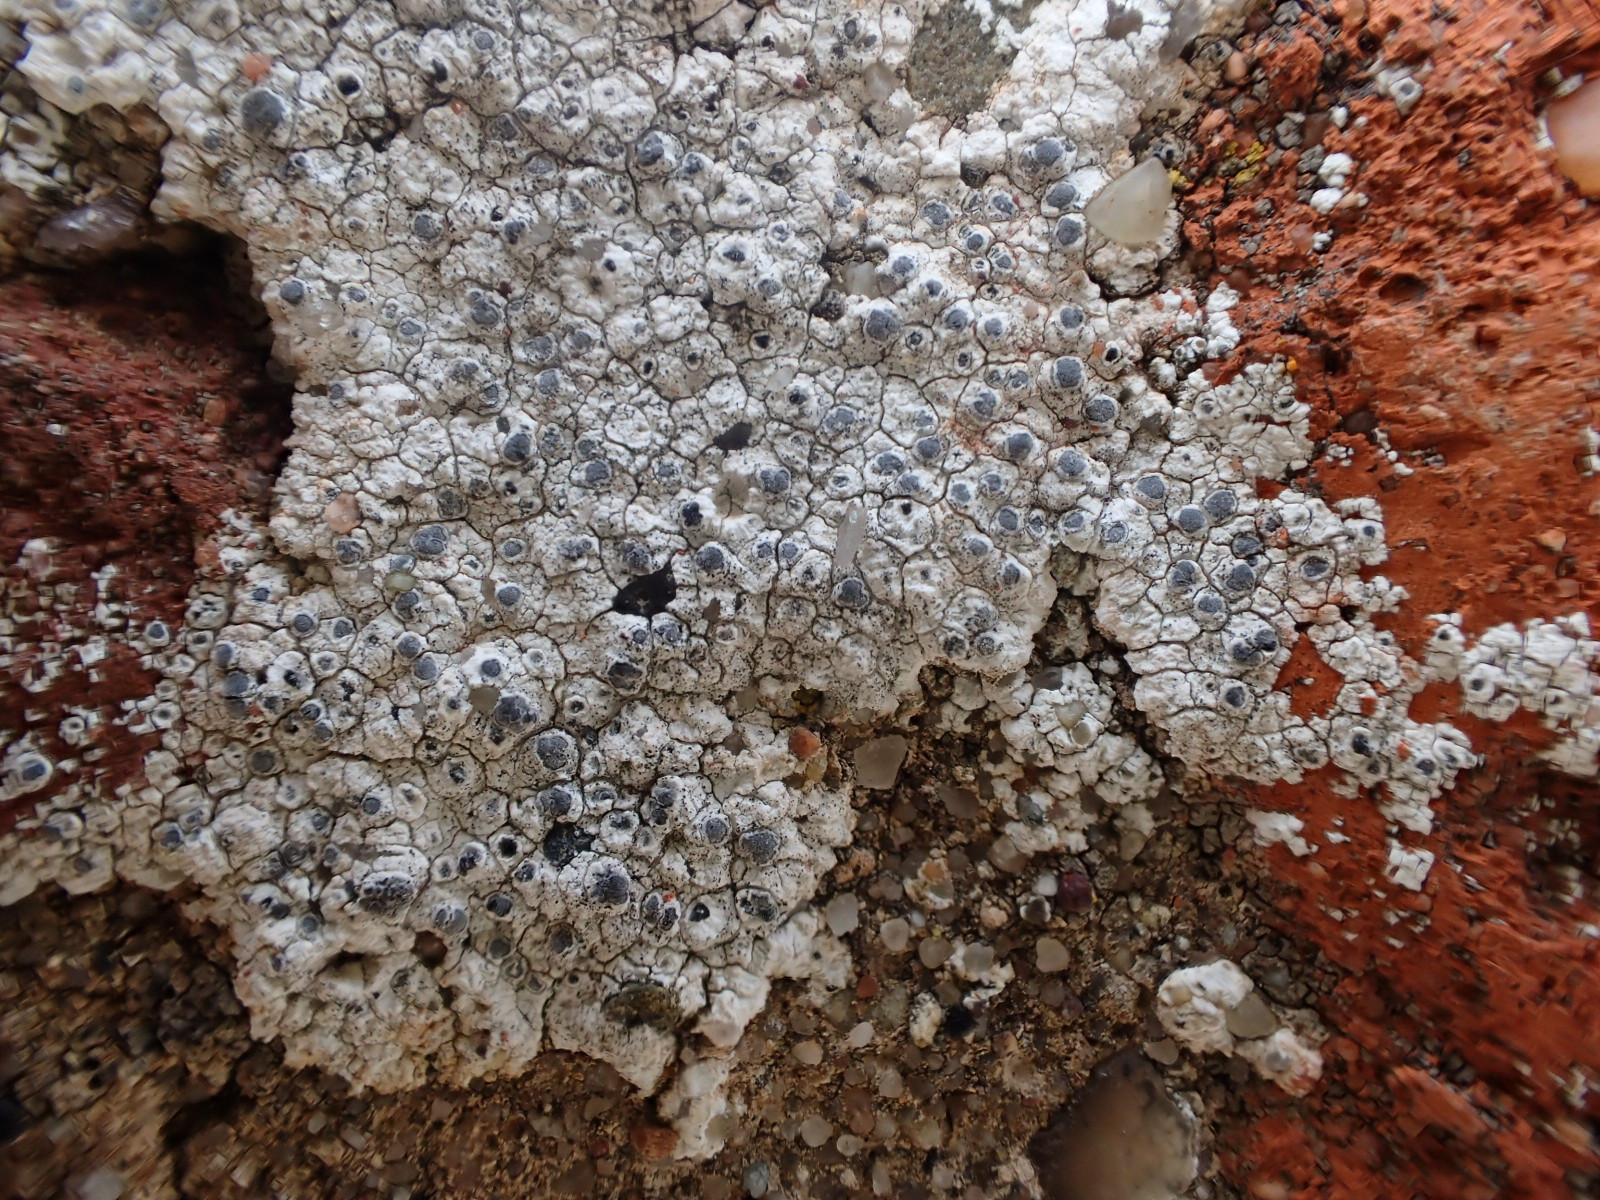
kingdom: Fungi
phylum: Ascomycota
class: Lecanoromycetes
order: Caliciales
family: Caliciaceae
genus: Diplotomma
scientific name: Diplotomma alboatrum
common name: sorthvid sortskivelav
